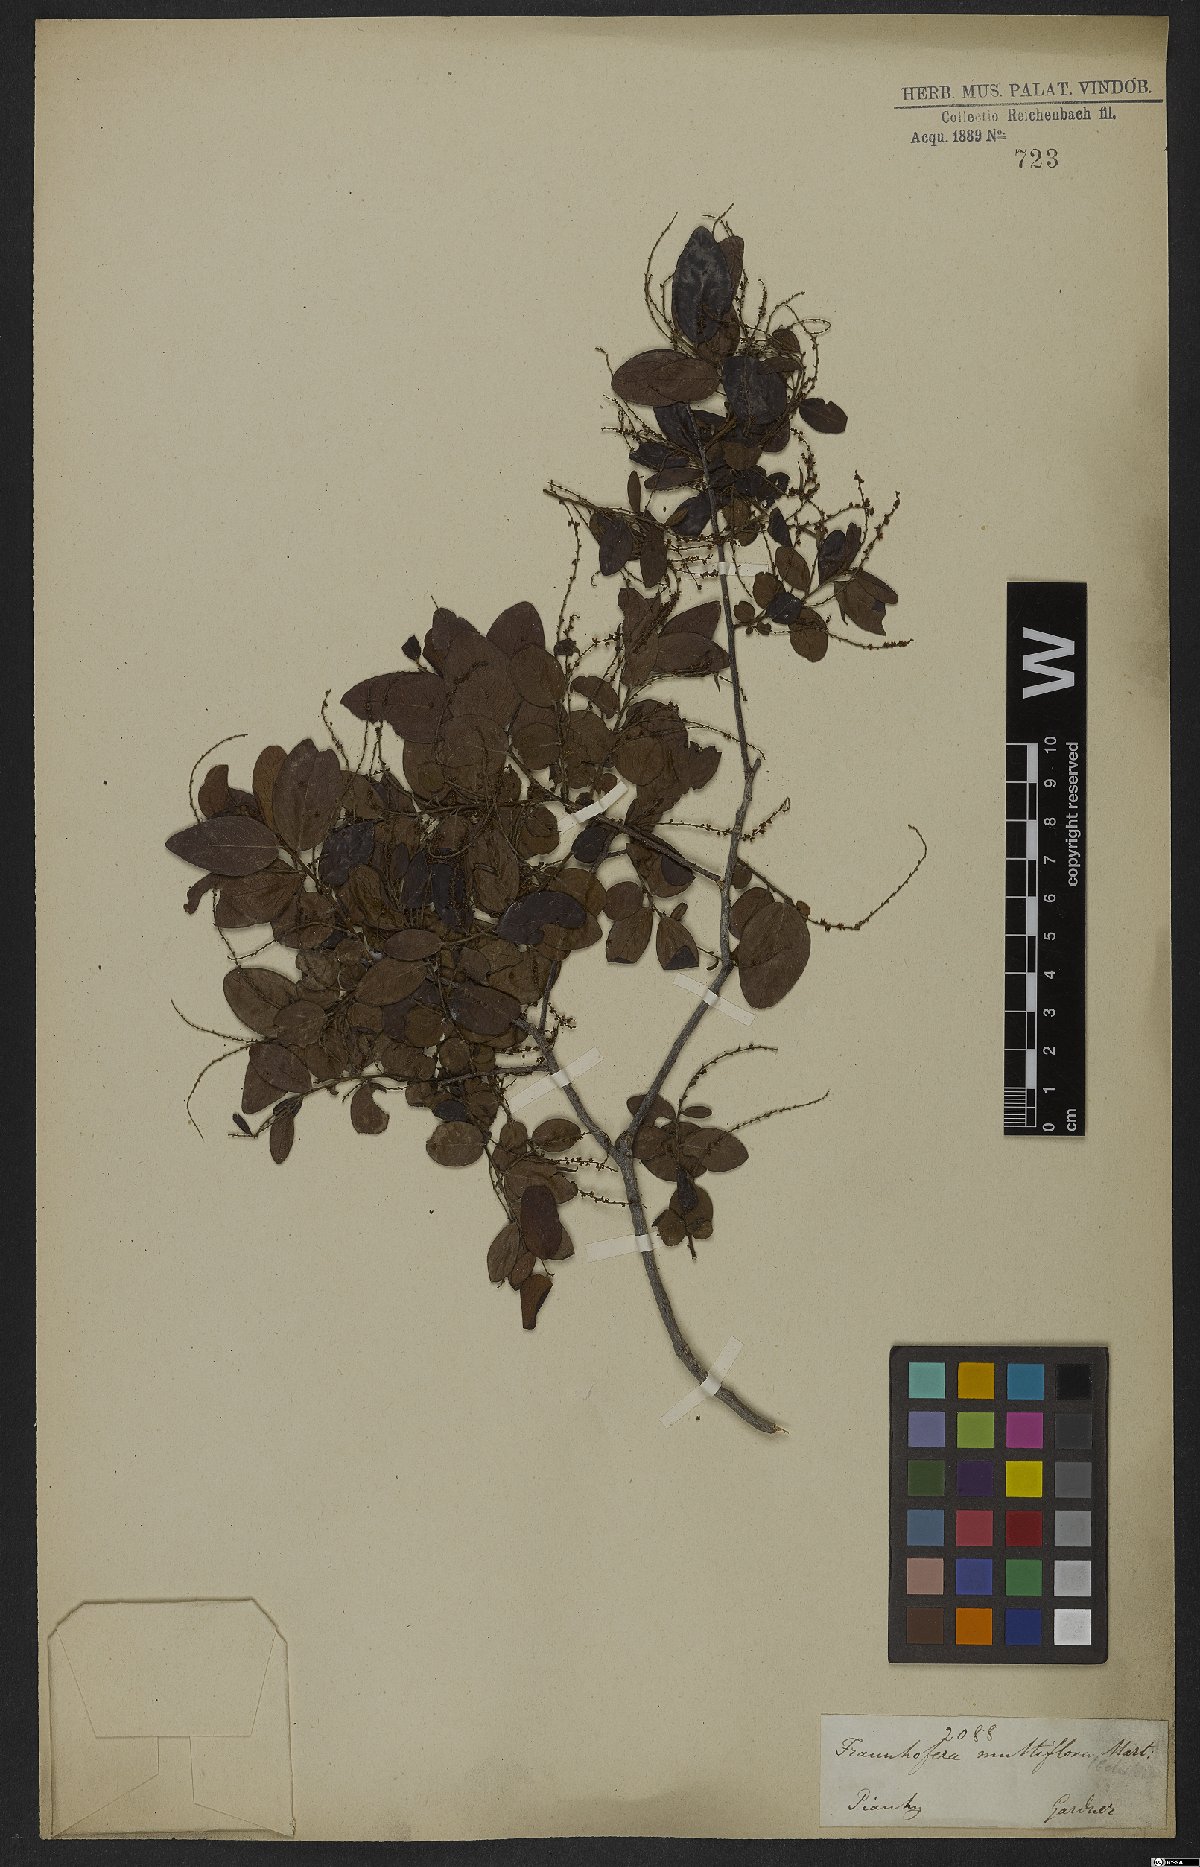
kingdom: Plantae
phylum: Tracheophyta
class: Magnoliopsida
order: Celastrales
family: Celastraceae
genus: Fraunhofera
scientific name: Fraunhofera multiflora
